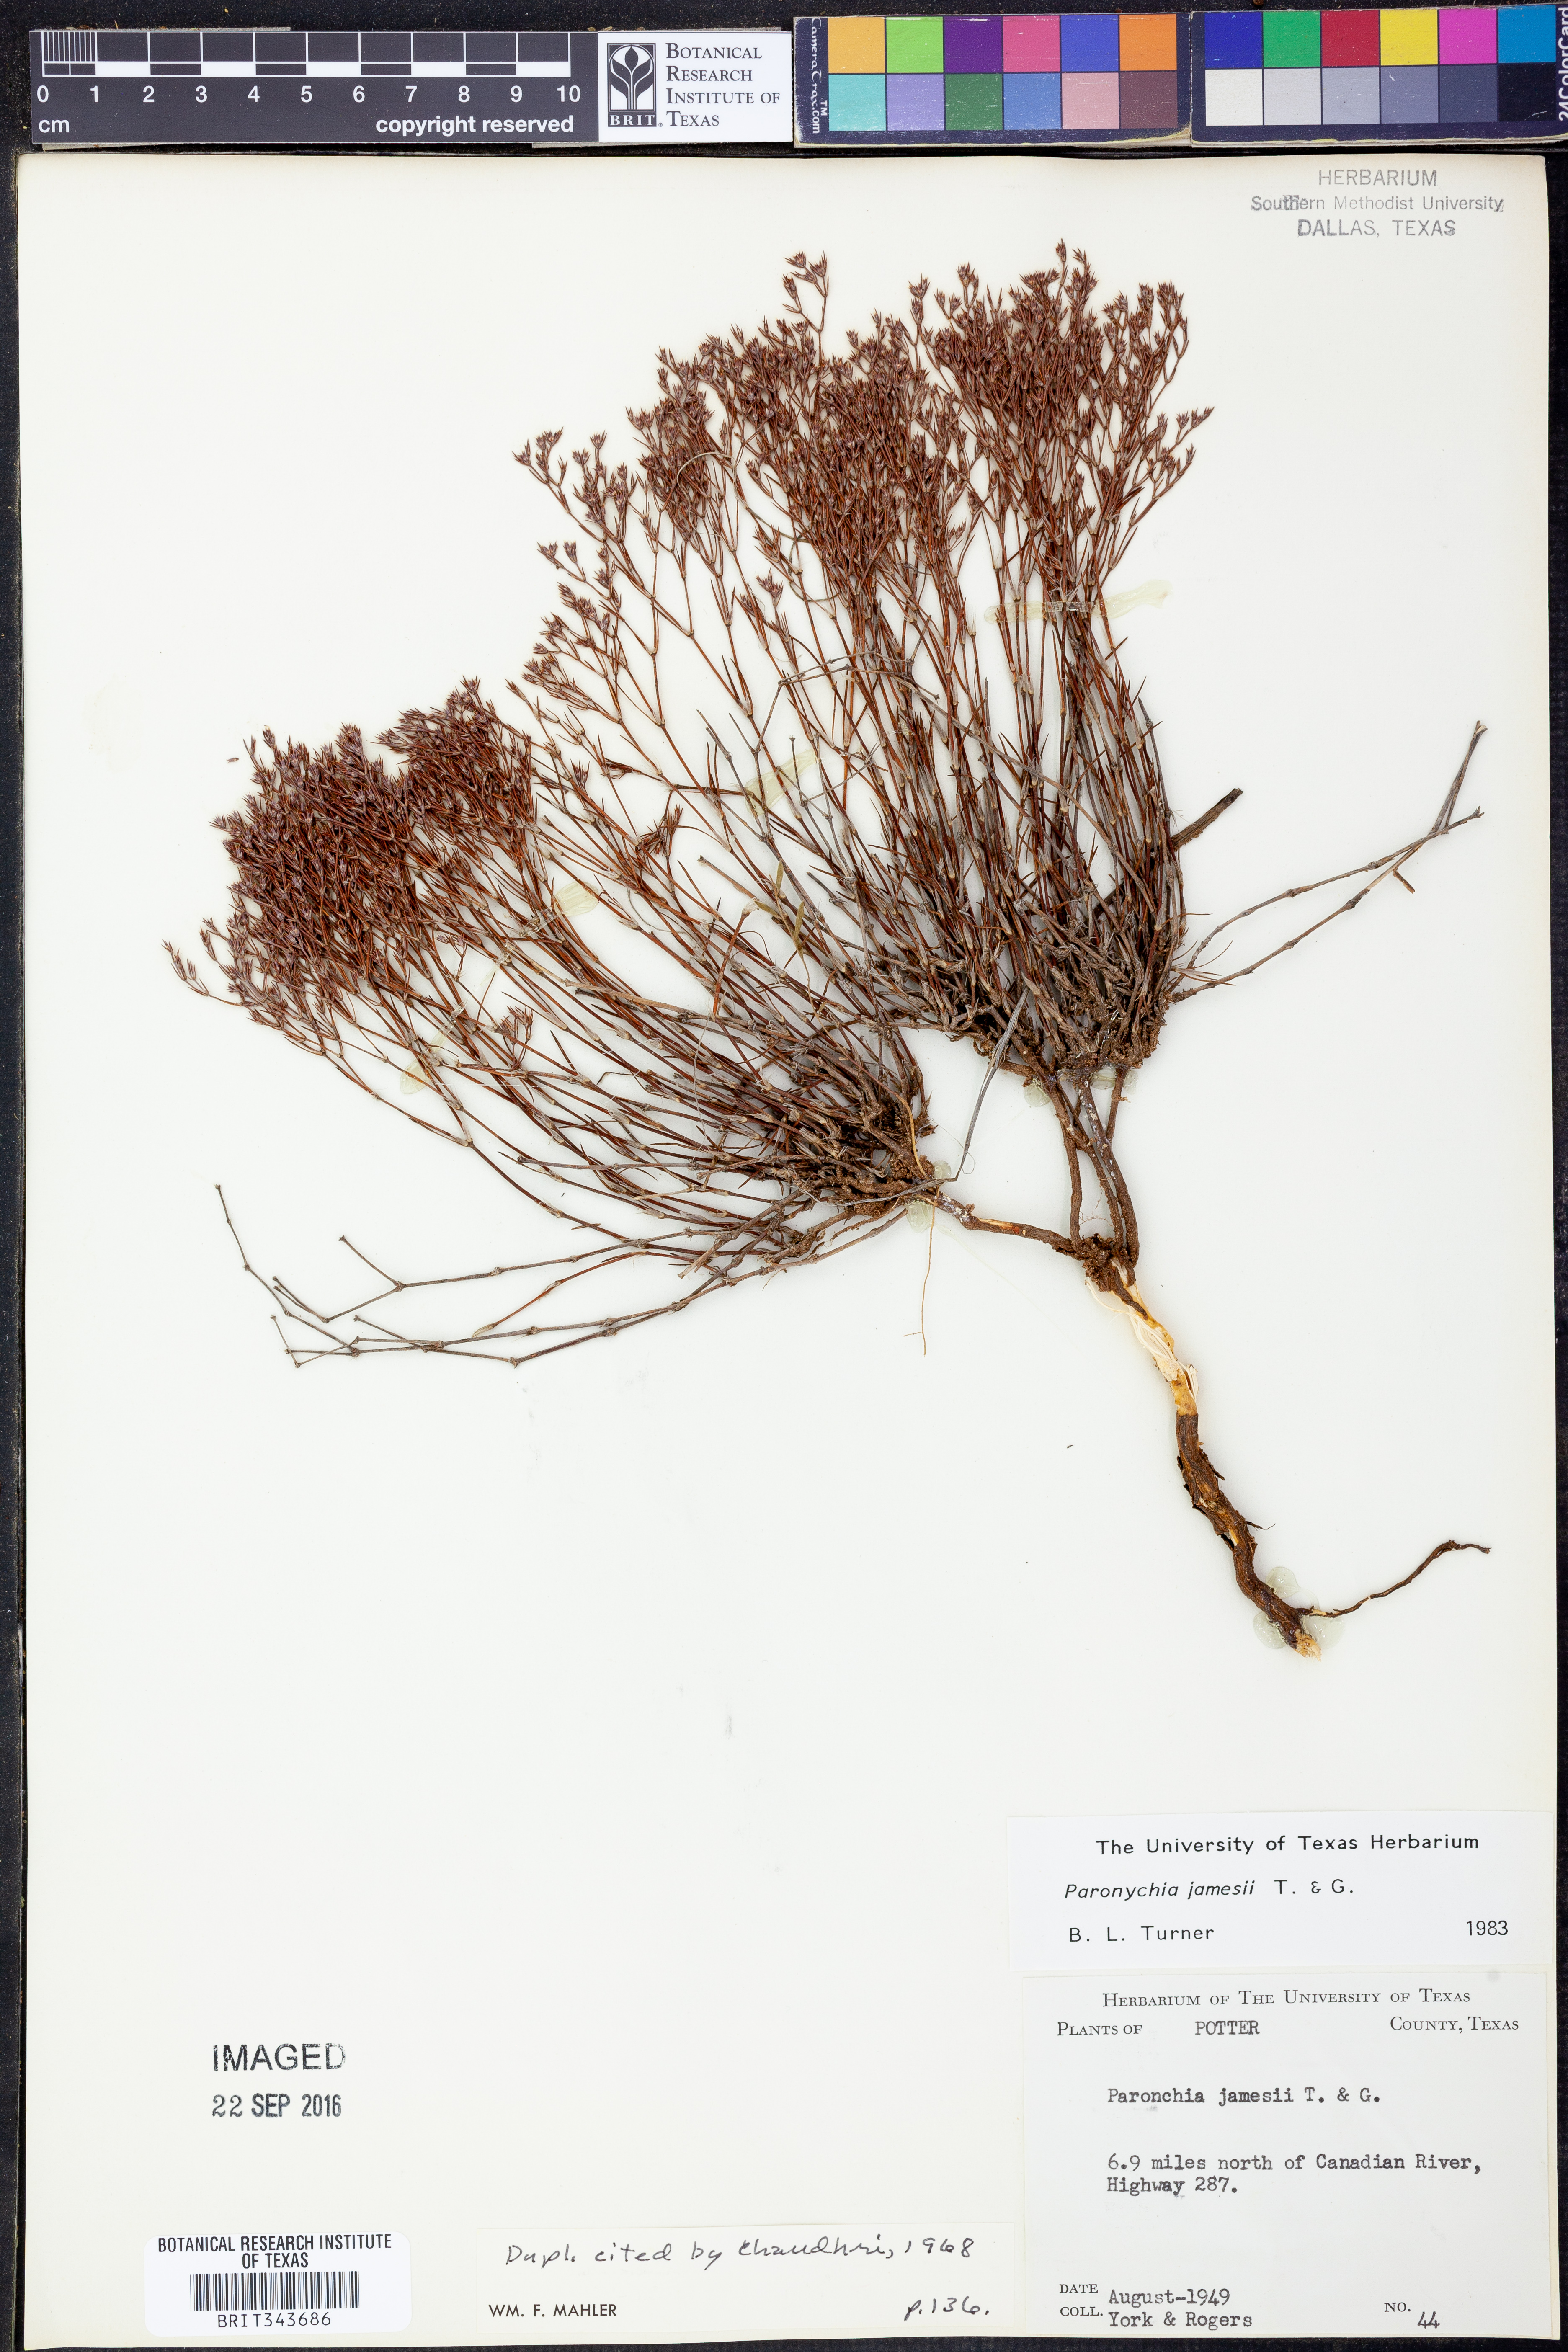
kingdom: Plantae
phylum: Tracheophyta
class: Magnoliopsida
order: Caryophyllales
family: Caryophyllaceae
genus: Paronychia
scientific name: Paronychia jamesii
